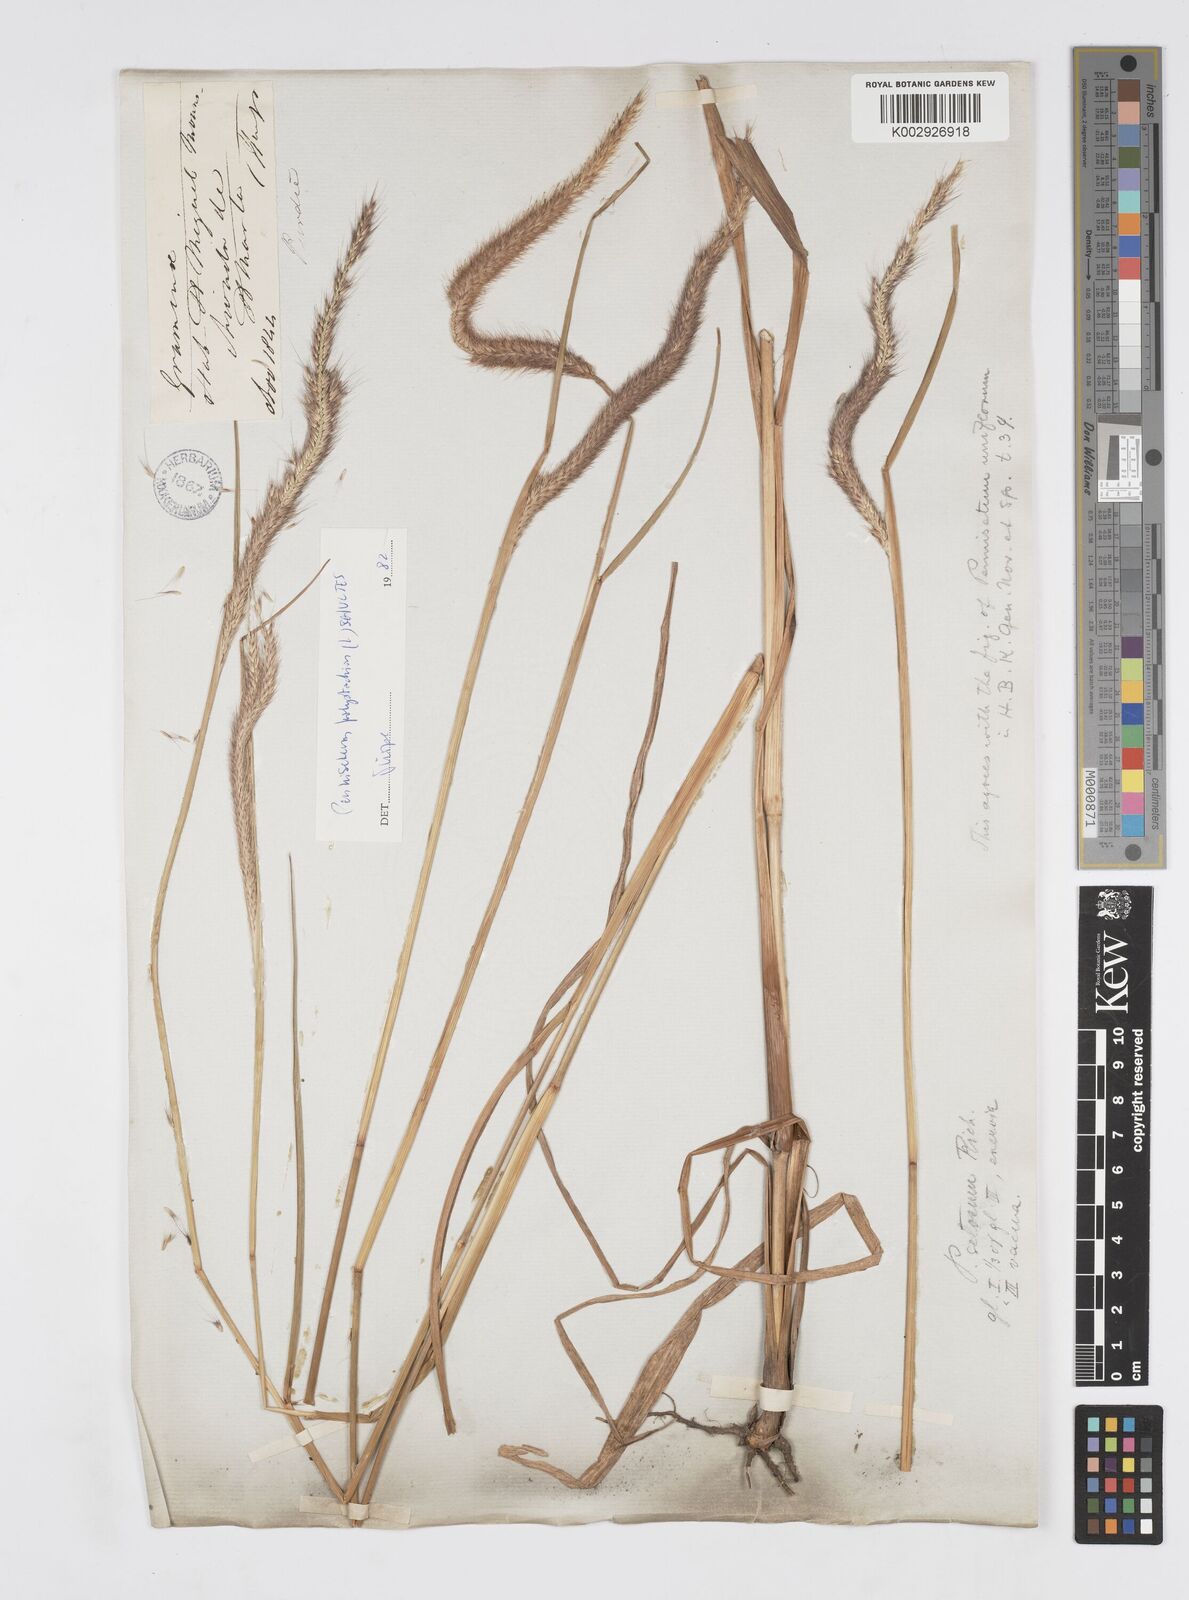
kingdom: Plantae
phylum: Tracheophyta
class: Liliopsida
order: Poales
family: Poaceae
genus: Setaria
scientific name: Setaria parviflora
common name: Knotroot bristle-grass
